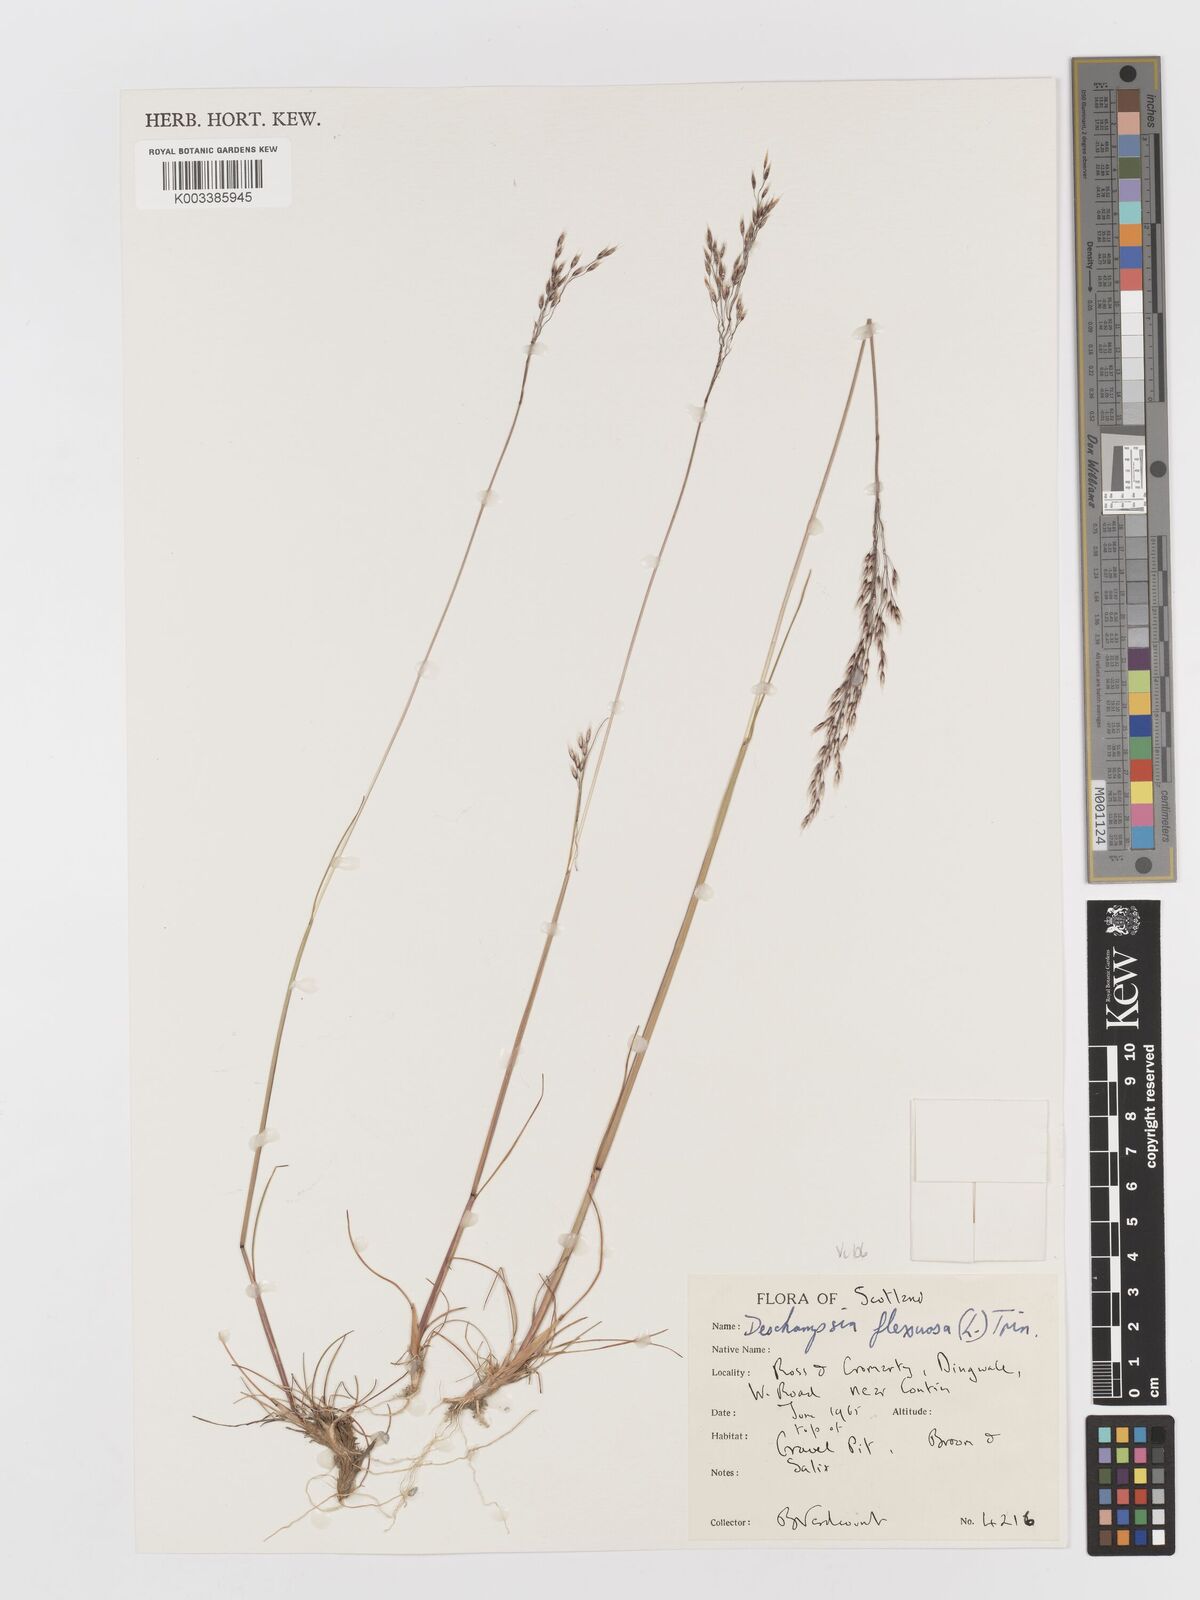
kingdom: Plantae
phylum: Tracheophyta
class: Liliopsida
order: Poales
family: Poaceae
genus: Avenella
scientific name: Avenella flexuosa
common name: Wavy hairgrass
